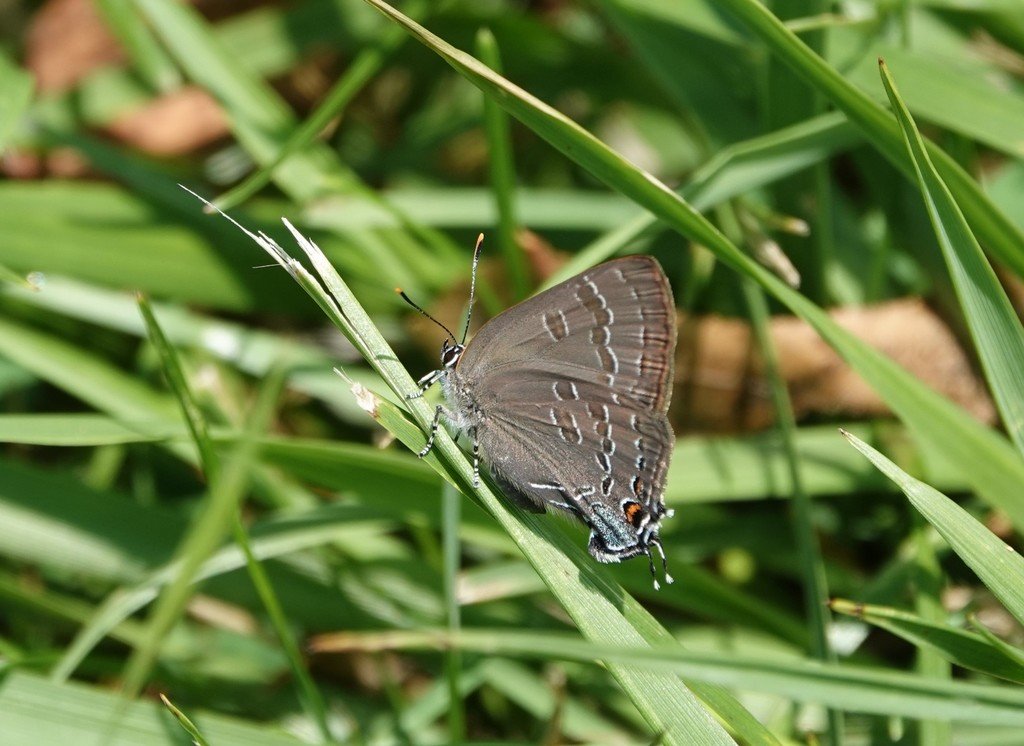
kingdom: Animalia
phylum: Arthropoda
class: Insecta
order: Lepidoptera
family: Lycaenidae
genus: Strymon
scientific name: Strymon caryaevorus
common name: Hickory Hairstreak
